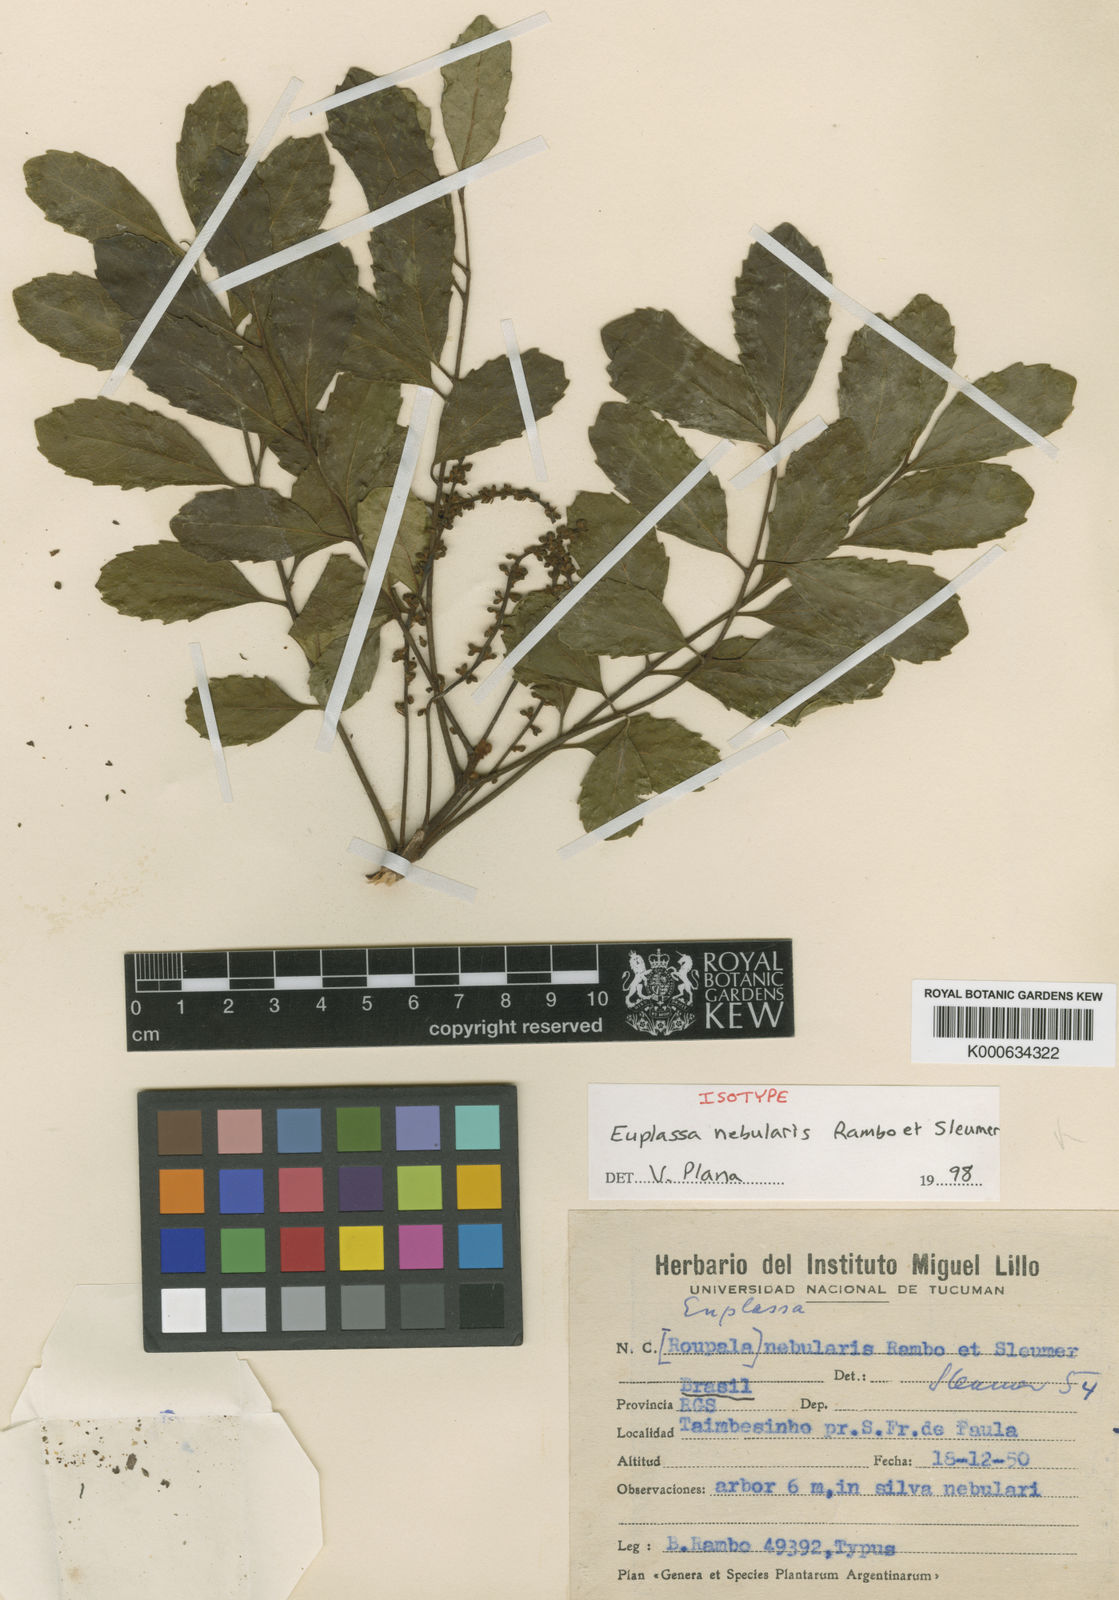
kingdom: Plantae
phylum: Tracheophyta
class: Magnoliopsida
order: Proteales
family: Proteaceae
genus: Euplassa
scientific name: Euplassa nebularis
